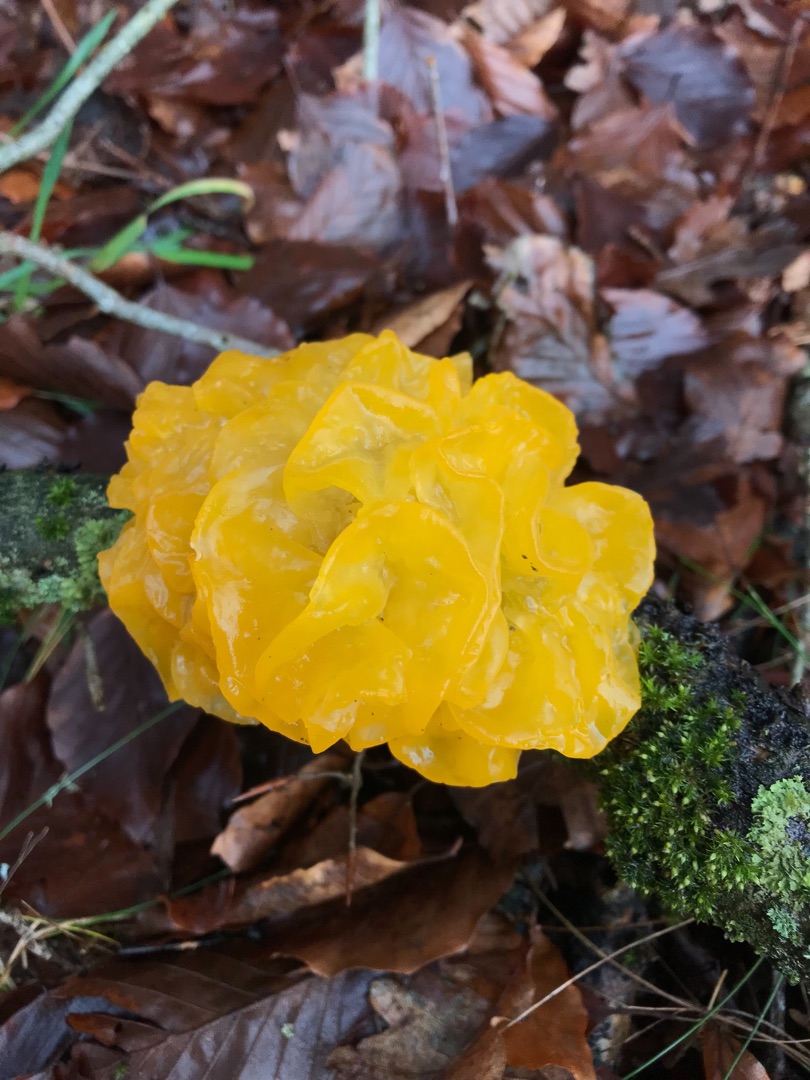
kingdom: Fungi
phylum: Basidiomycota
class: Tremellomycetes
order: Tremellales
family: Tremellaceae
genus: Tremella
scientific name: Tremella mesenterica
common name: Gul bævresvamp
